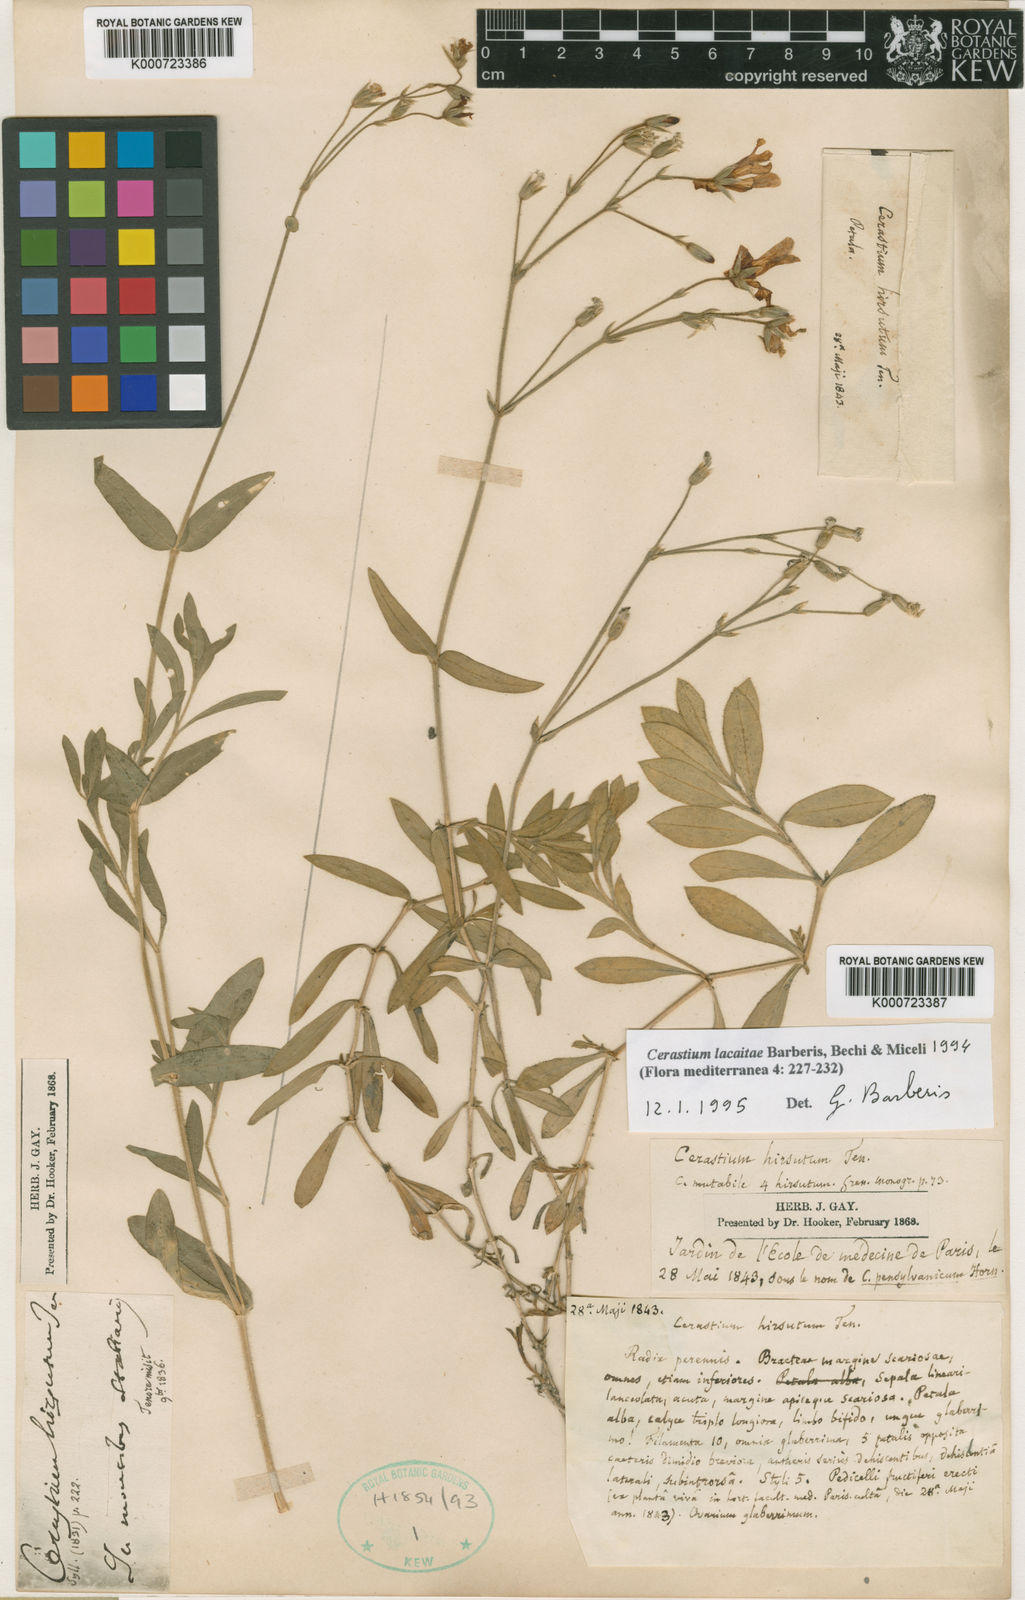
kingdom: Plantae
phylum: Tracheophyta
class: Magnoliopsida
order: Caryophyllales
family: Caryophyllaceae
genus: Cerastium
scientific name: Cerastium scaranii
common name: Italian mouse-ear
